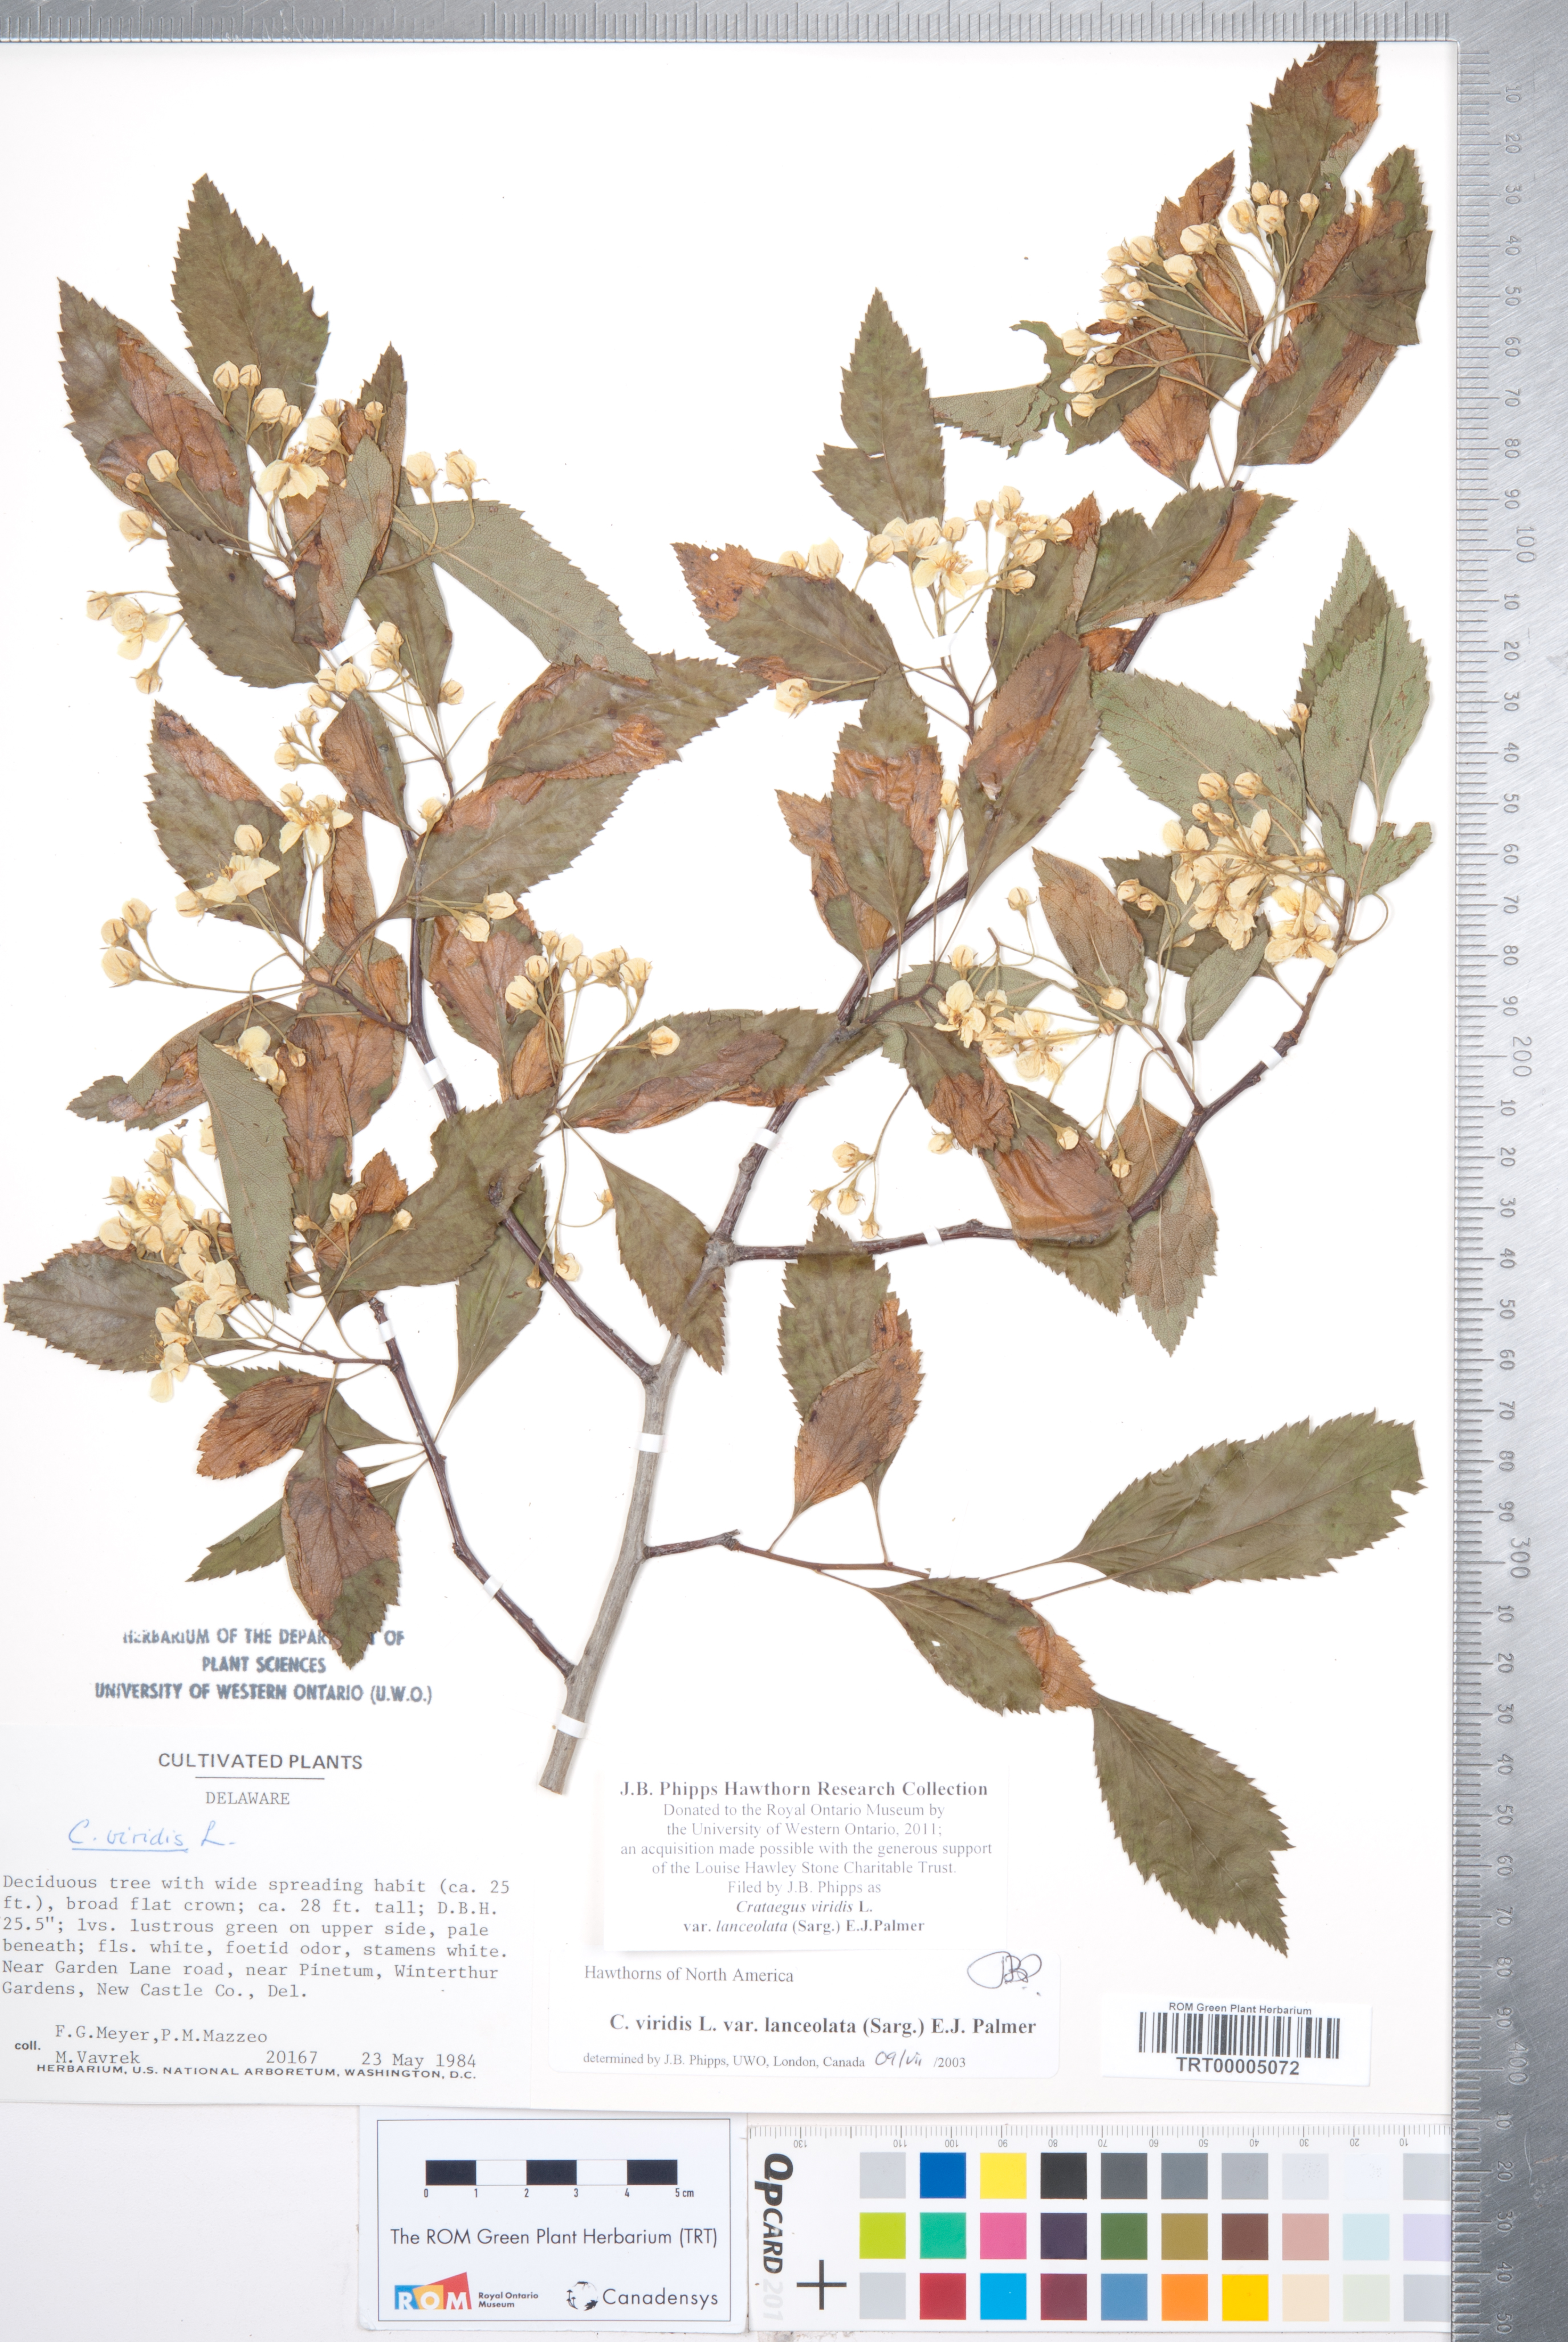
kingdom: Plantae
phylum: Tracheophyta
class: Magnoliopsida
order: Rosales
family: Rosaceae
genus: Crataegus
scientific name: Crataegus viridis
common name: Southernthorn
